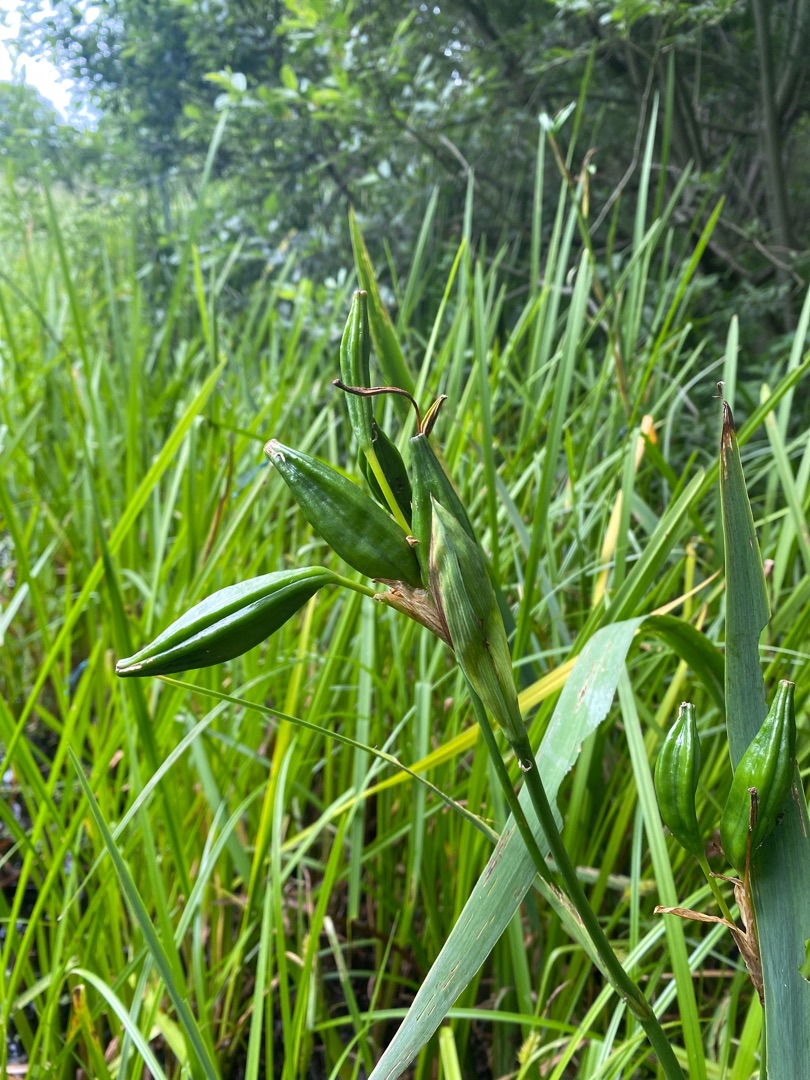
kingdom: Plantae
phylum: Tracheophyta
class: Liliopsida
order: Asparagales
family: Iridaceae
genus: Iris
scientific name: Iris pseudacorus
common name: Gul iris
